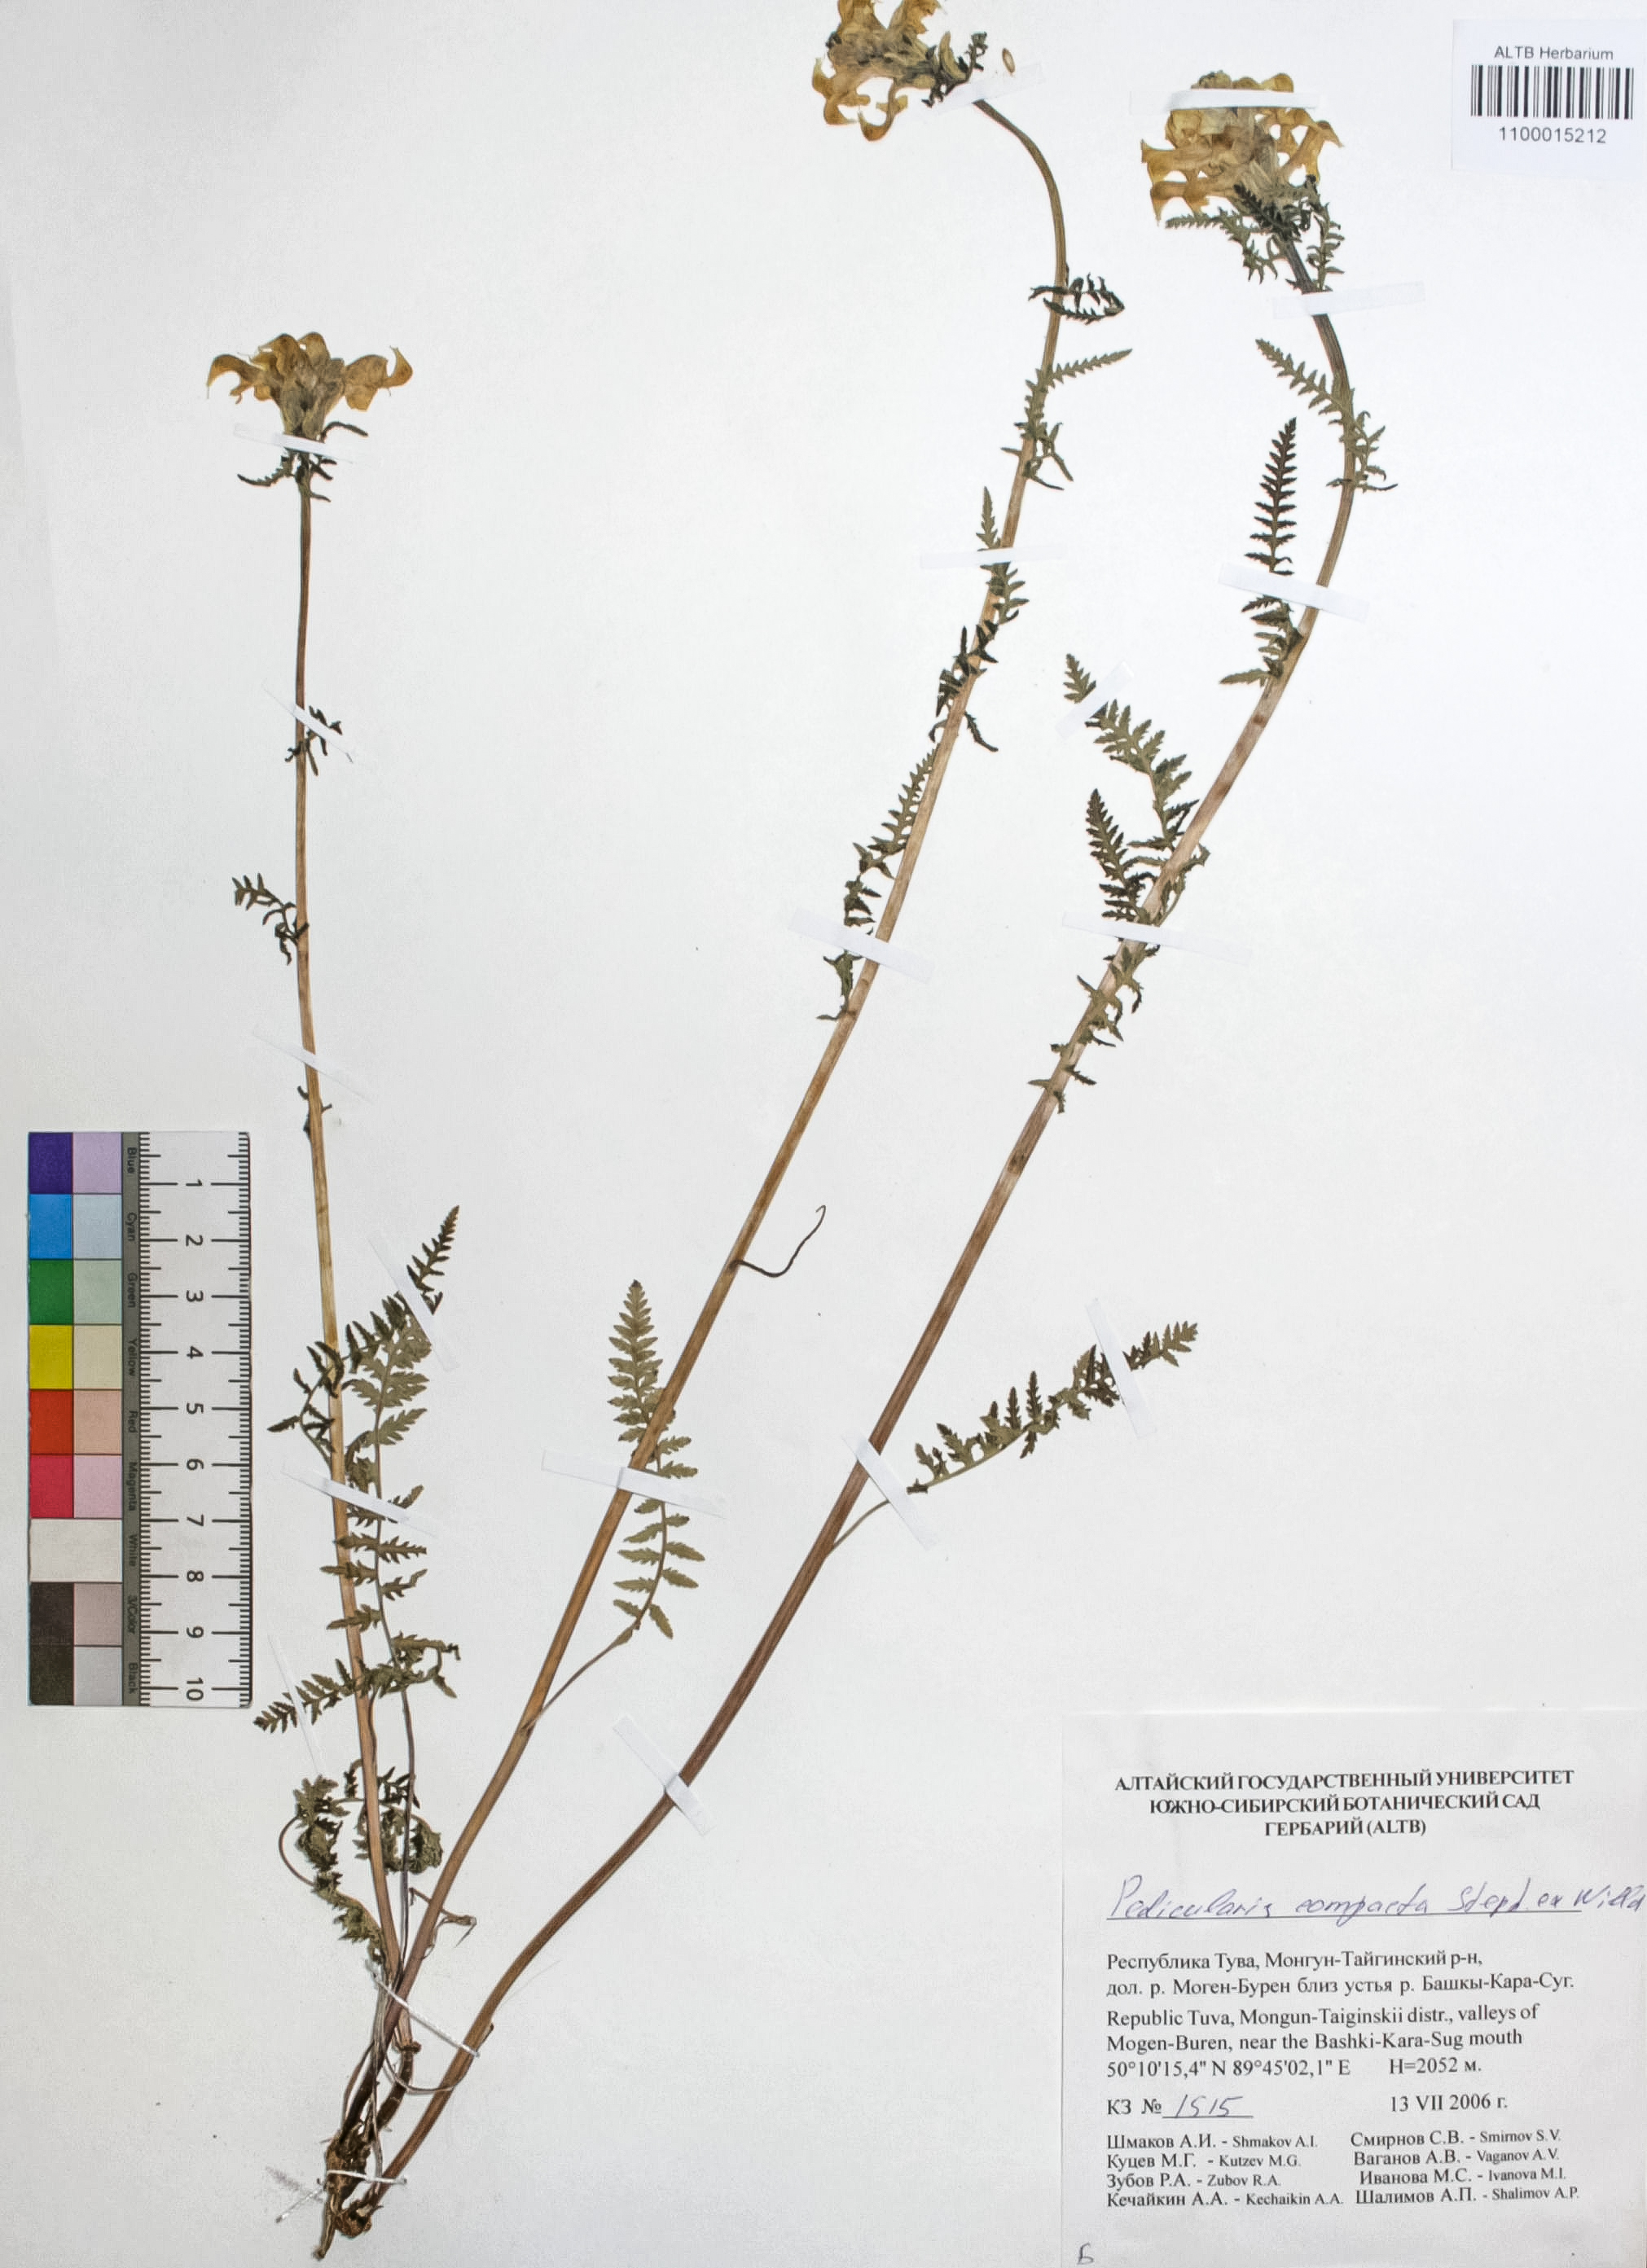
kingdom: Plantae
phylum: Tracheophyta
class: Magnoliopsida
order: Lamiales
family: Orobanchaceae
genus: Pedicularis
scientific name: Pedicularis compacta
